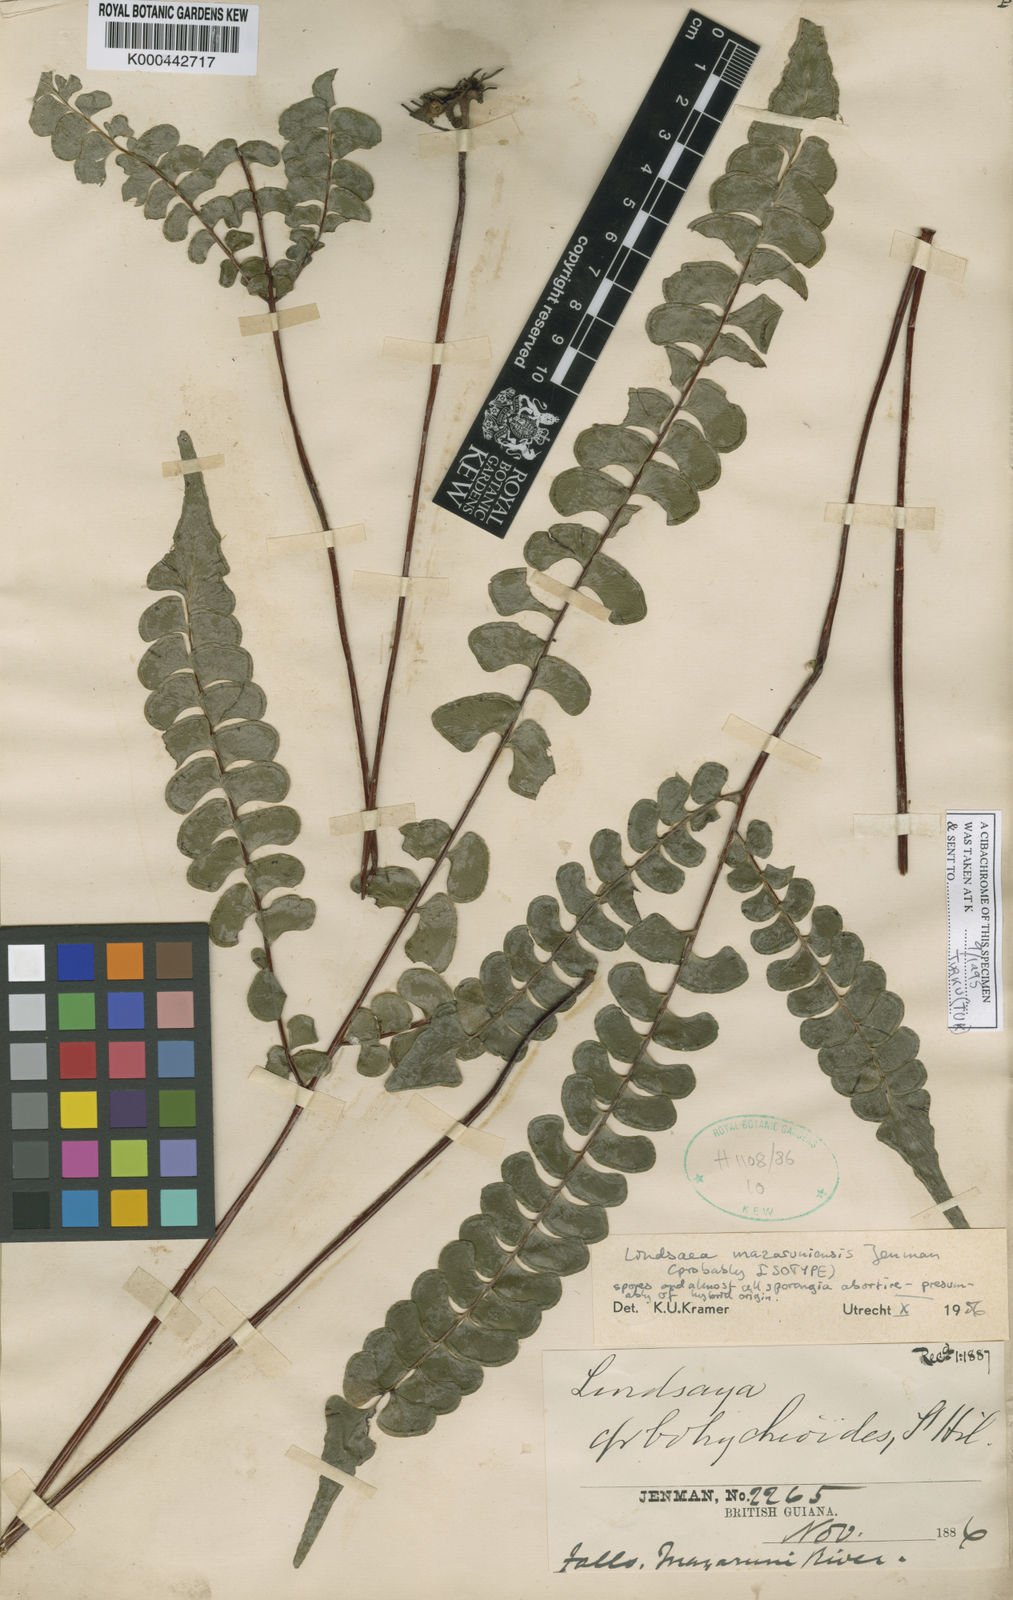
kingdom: Plantae
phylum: Tracheophyta
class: Polypodiopsida
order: Polypodiales
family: Lindsaeaceae
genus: Lindsaea
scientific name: Lindsaea mazaruniensis
